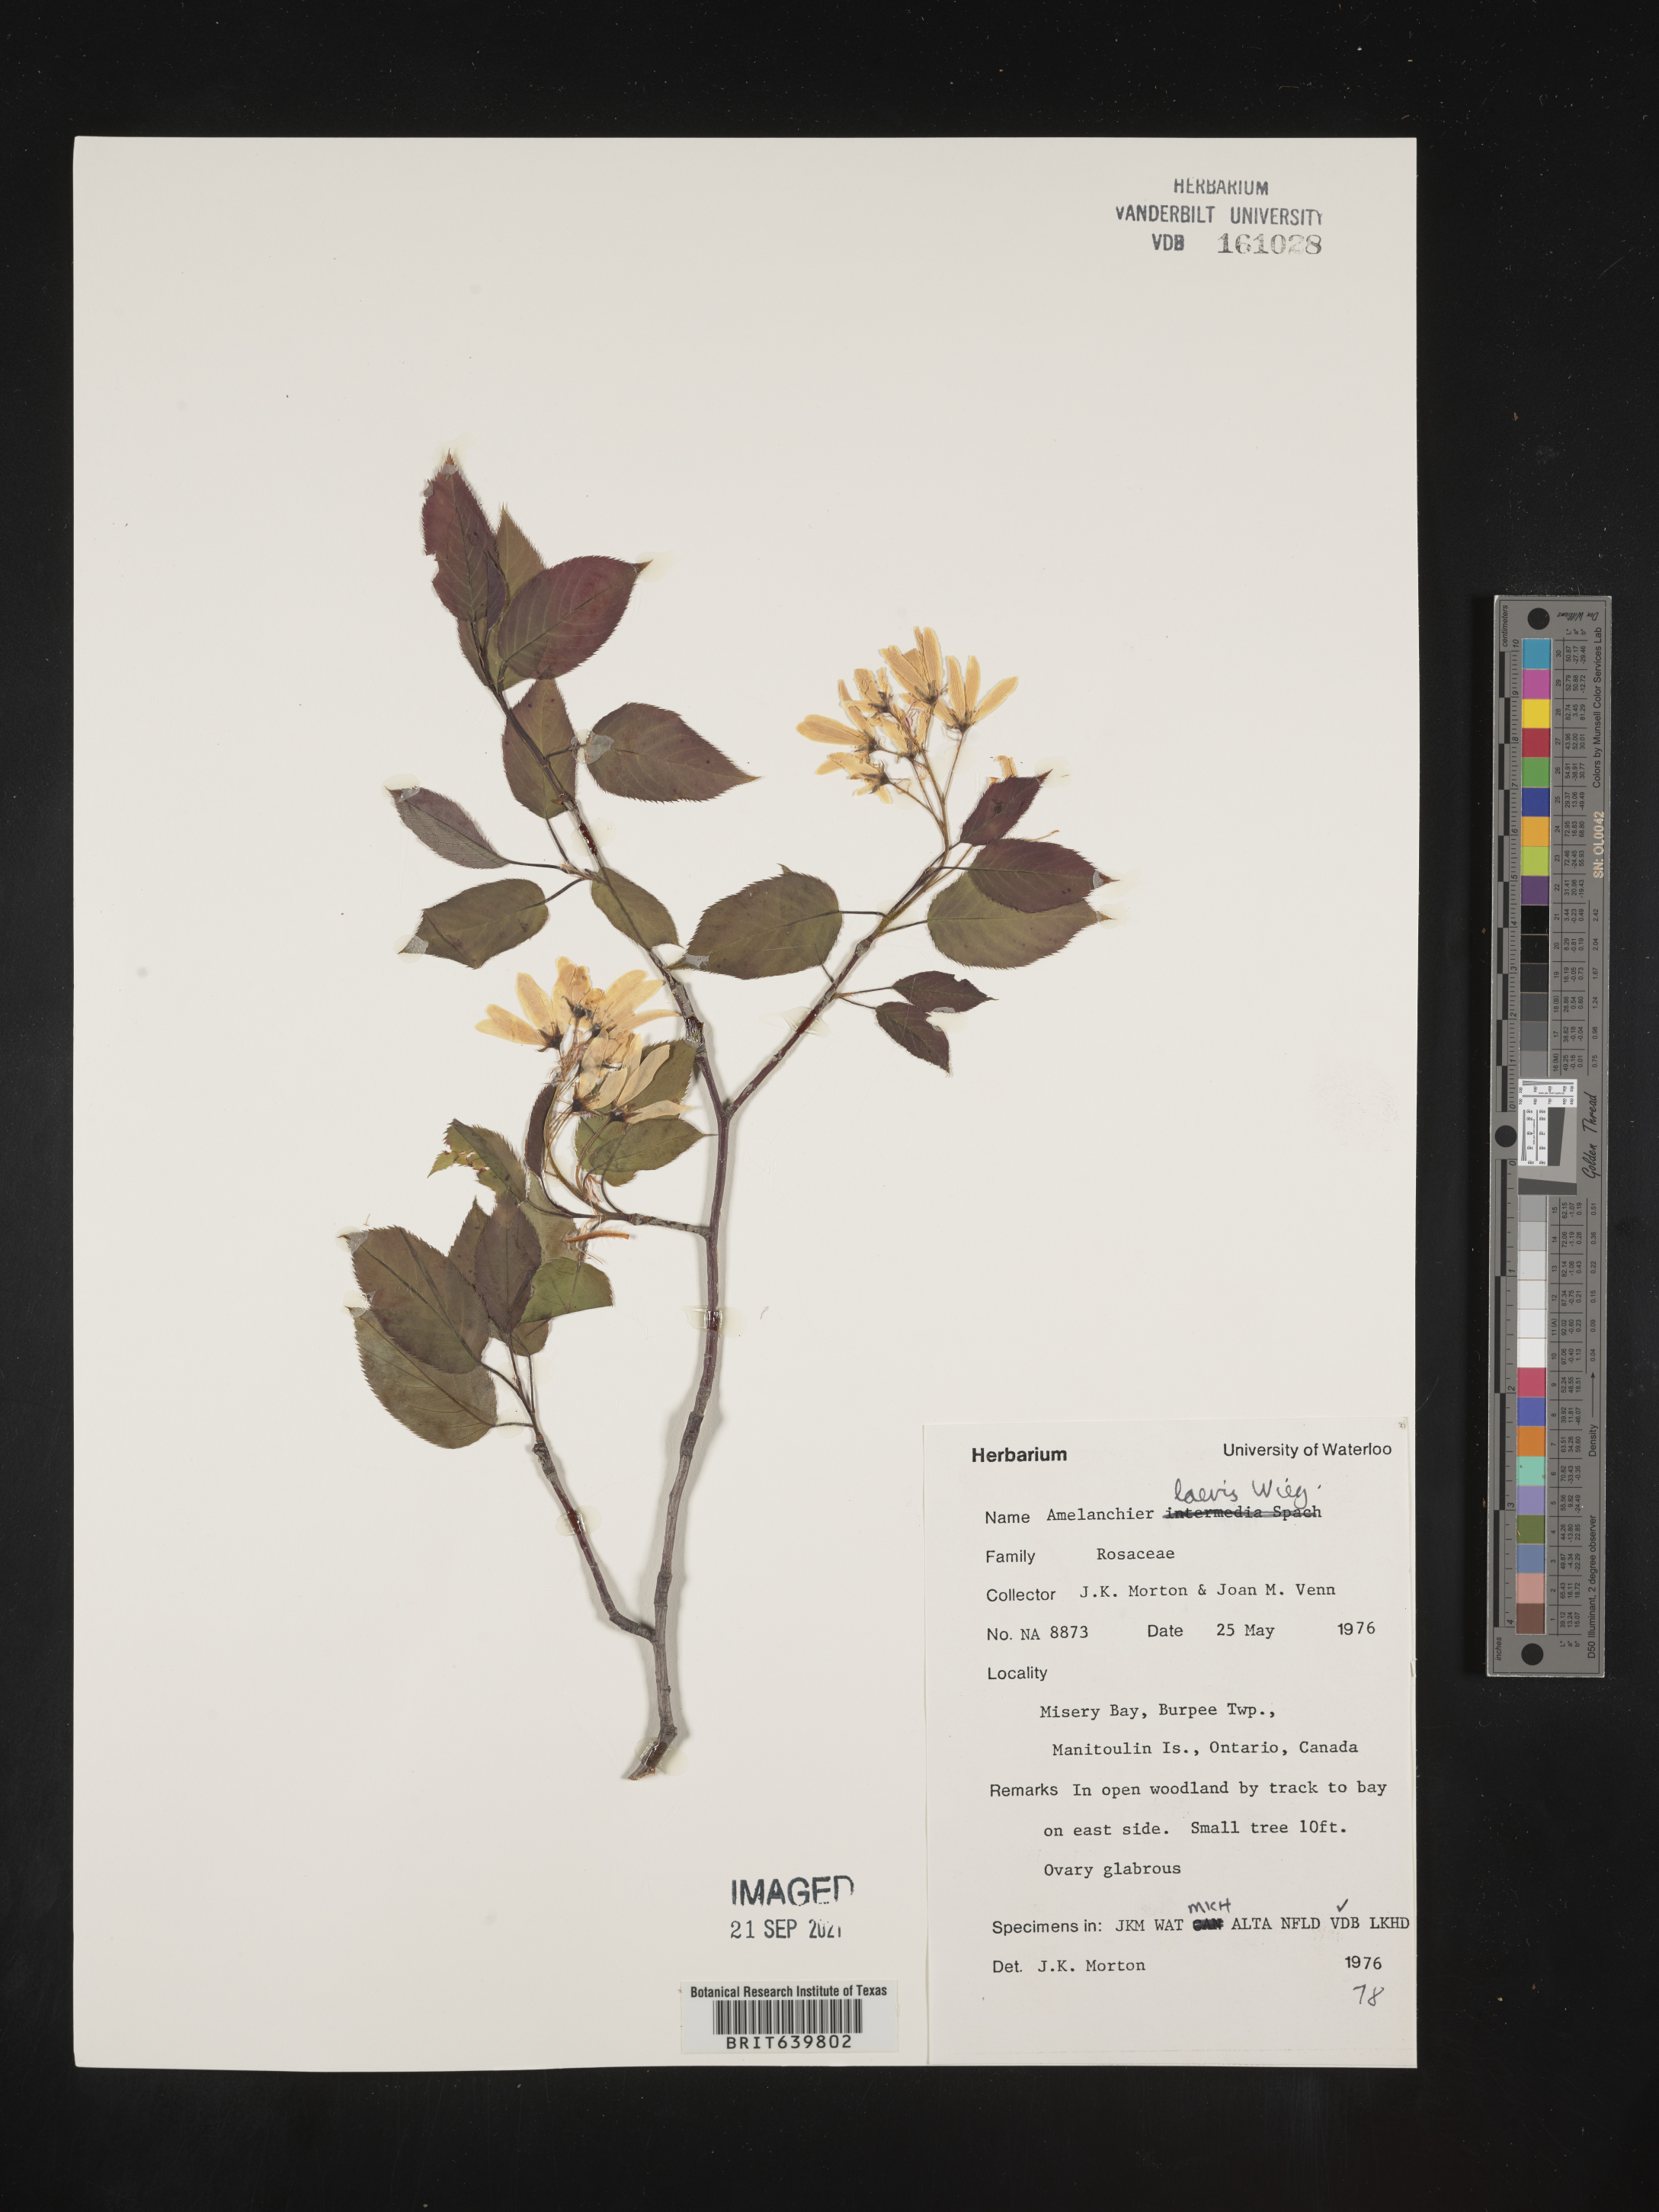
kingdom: Plantae
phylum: Tracheophyta
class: Magnoliopsida
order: Rosales
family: Rosaceae
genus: Amelanchier
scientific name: Amelanchier
